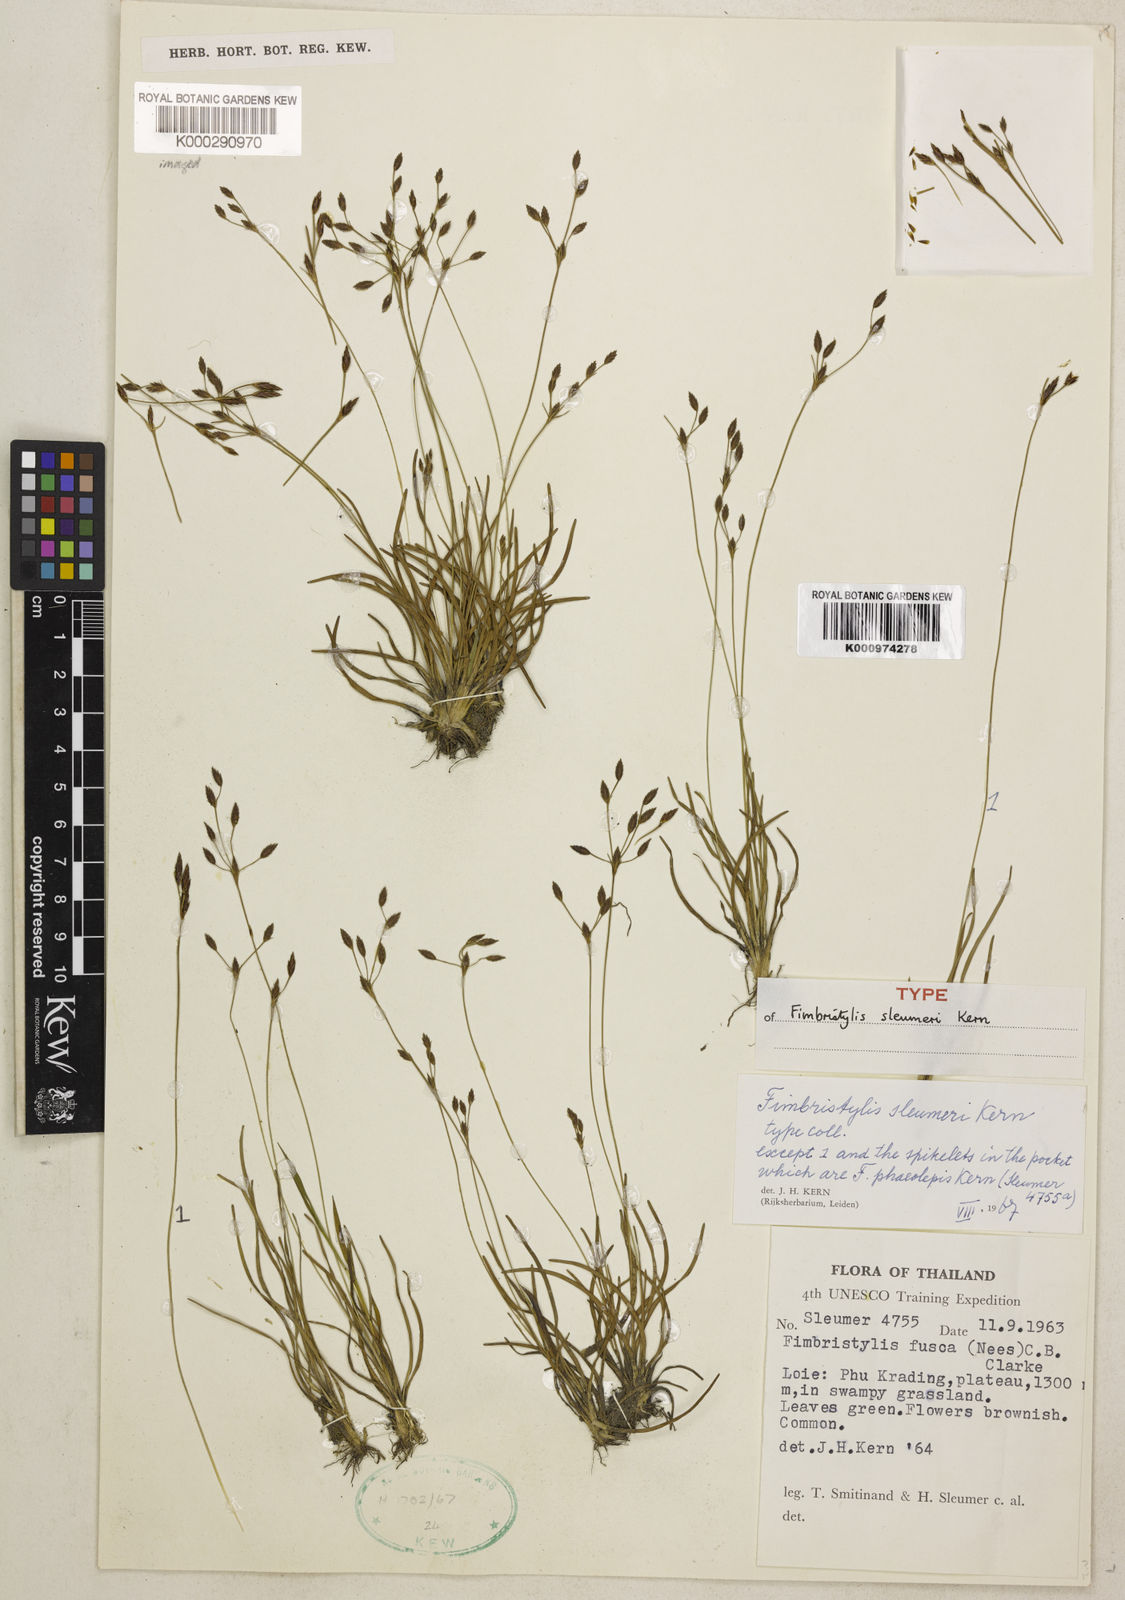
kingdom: Plantae
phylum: Tracheophyta
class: Liliopsida
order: Poales
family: Cyperaceae
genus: Fimbristylis
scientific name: Fimbristylis sleumeri
